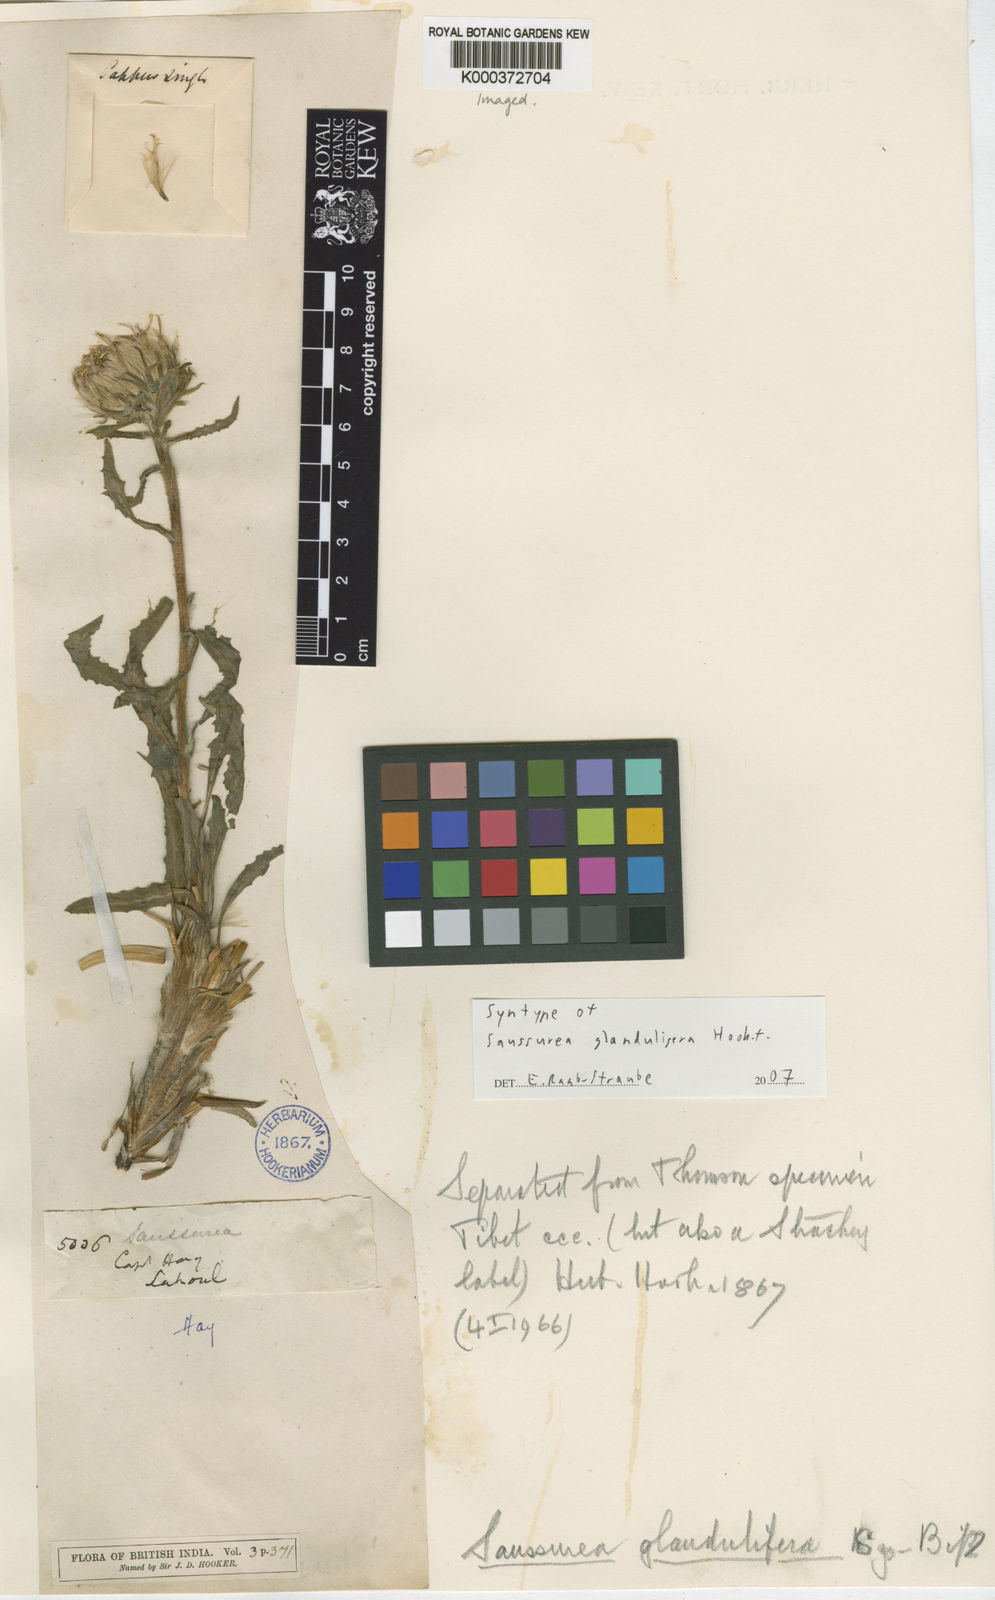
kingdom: Plantae
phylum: Tracheophyta
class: Magnoliopsida
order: Asterales
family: Asteraceae
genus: Saussurea
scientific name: Saussurea schlagintweitii
